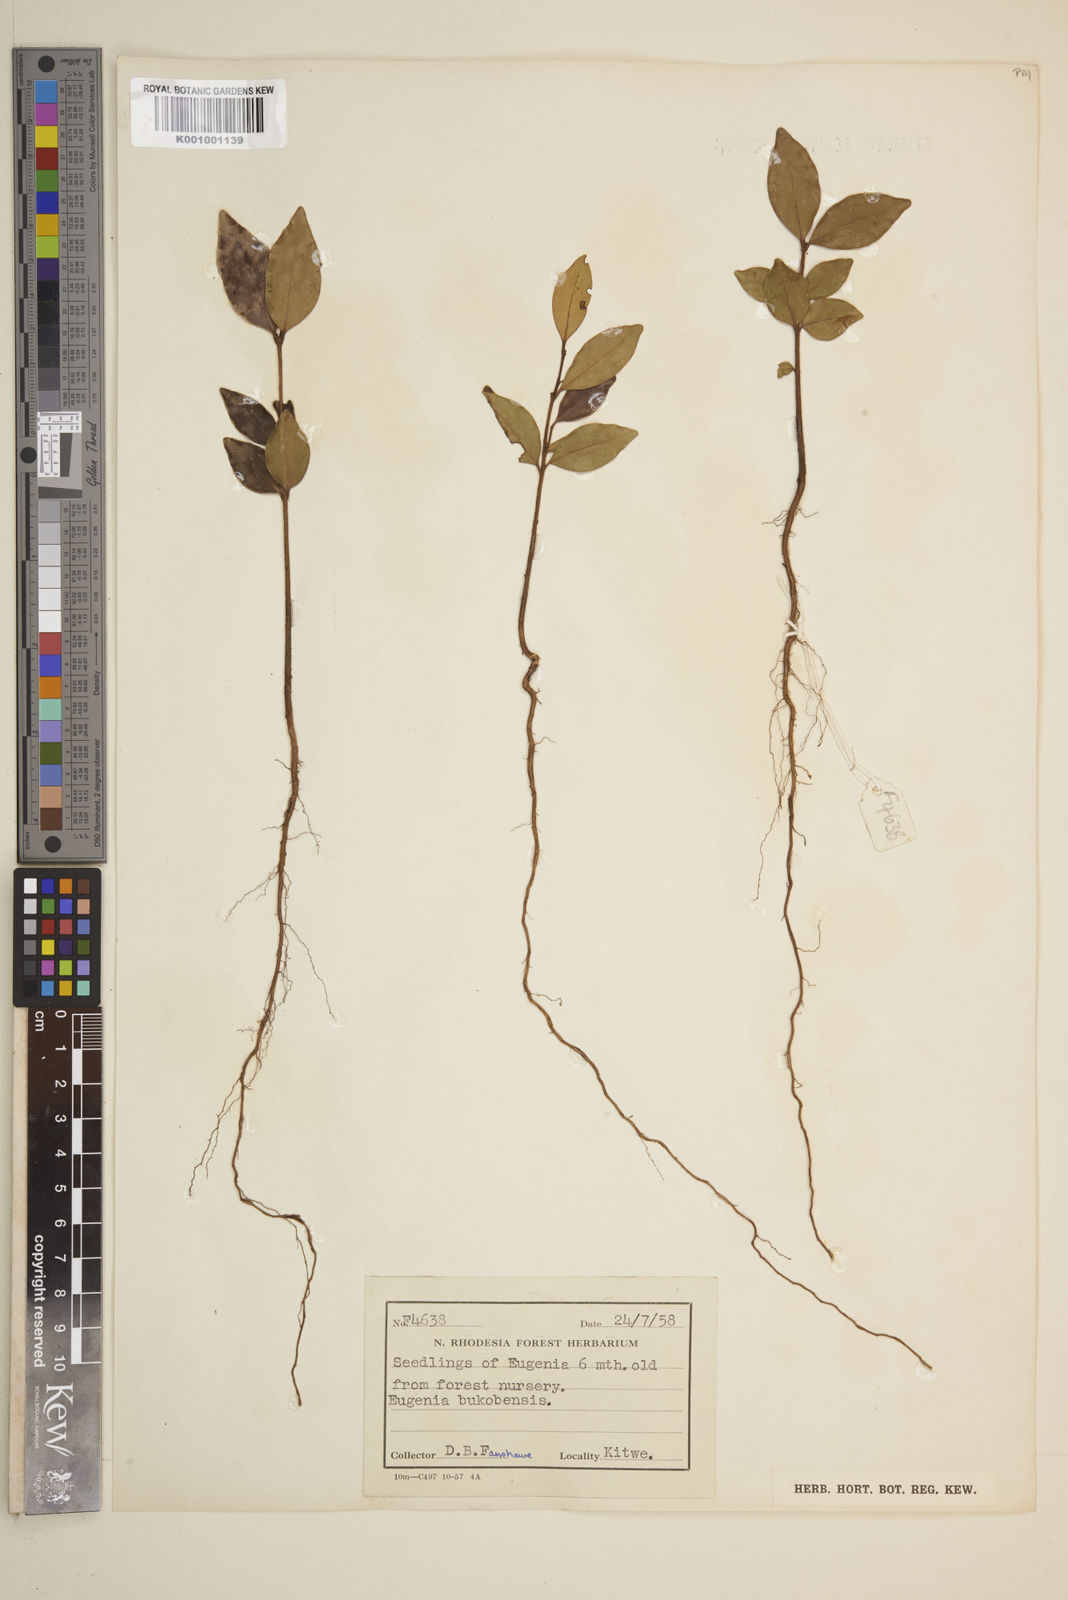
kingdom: Plantae
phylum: Tracheophyta
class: Magnoliopsida
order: Myrtales
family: Myrtaceae
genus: Eugenia
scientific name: Eugenia capensis
